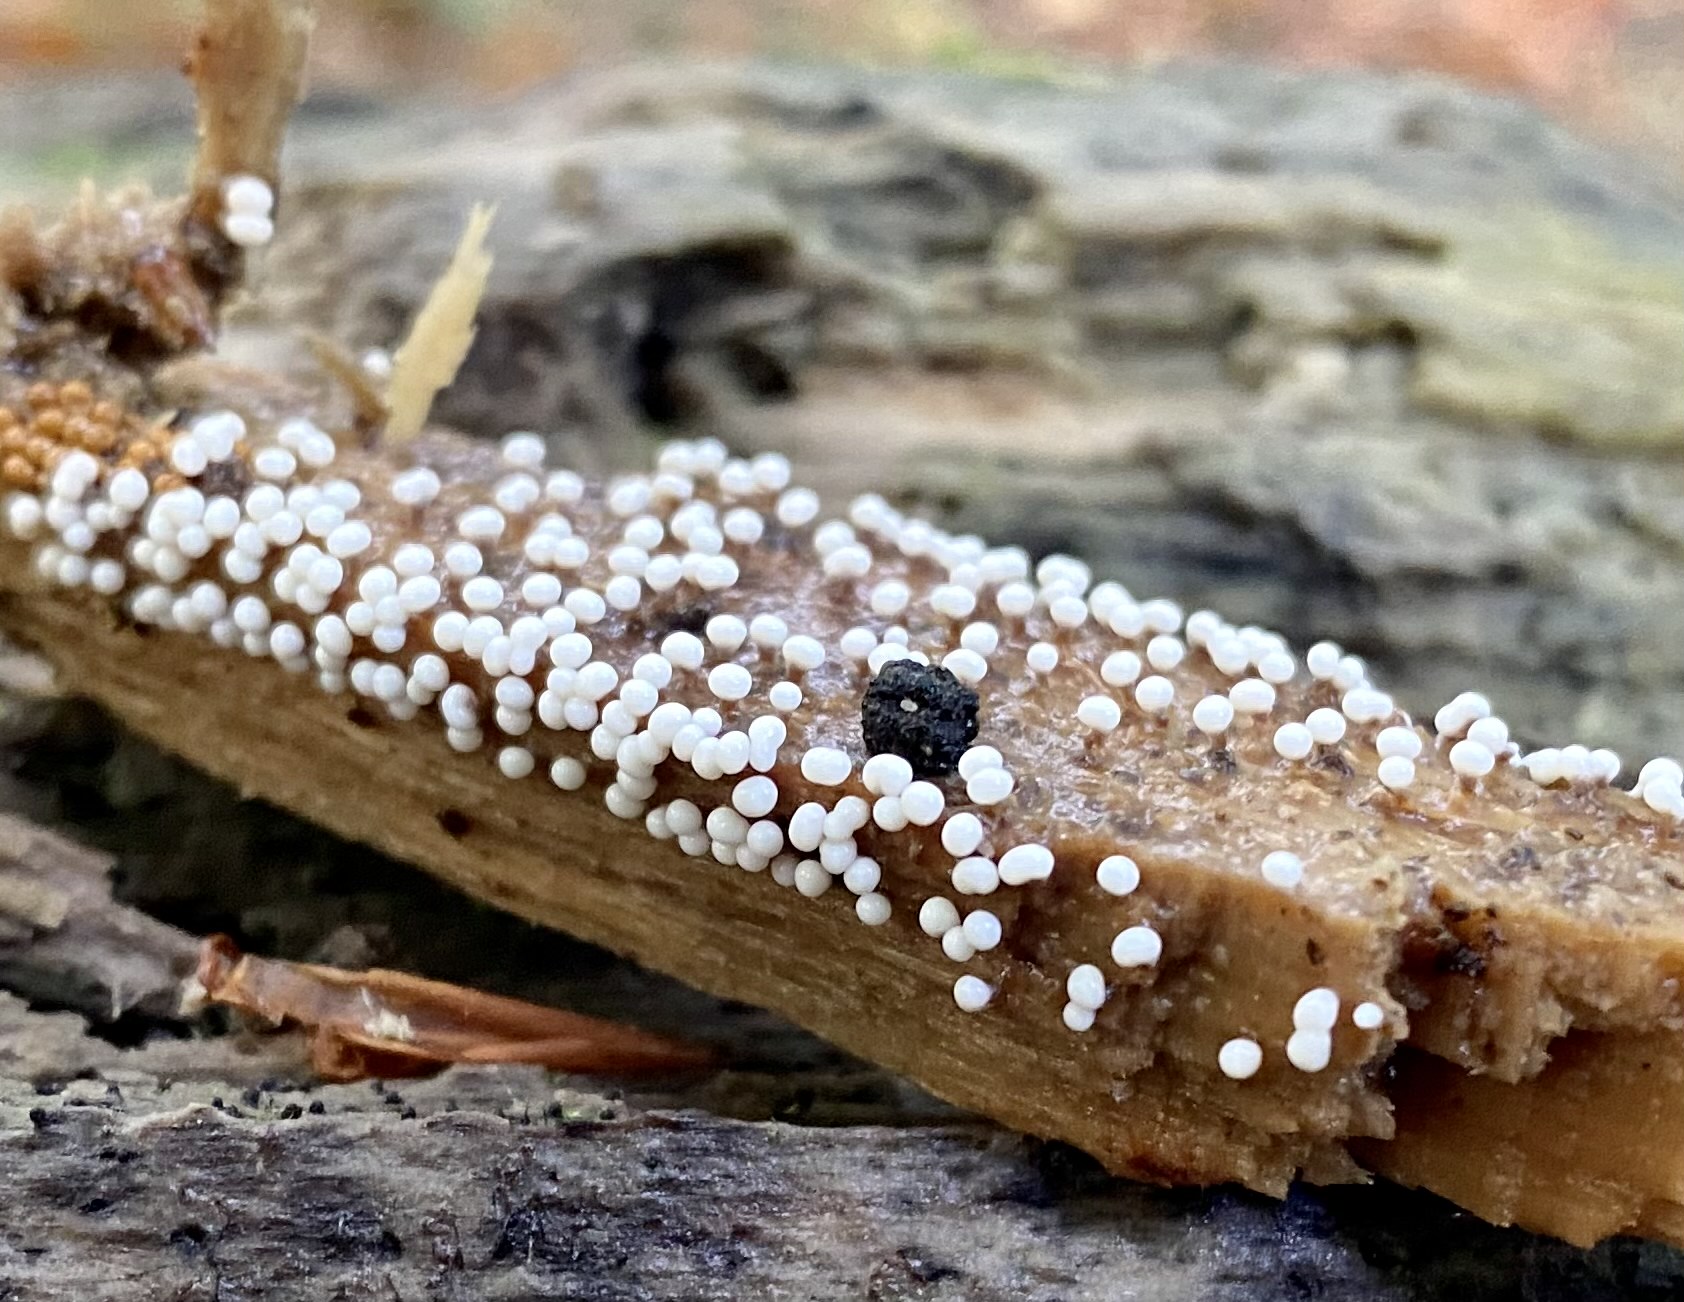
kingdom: Protozoa
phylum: Mycetozoa
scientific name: Mycetozoa
